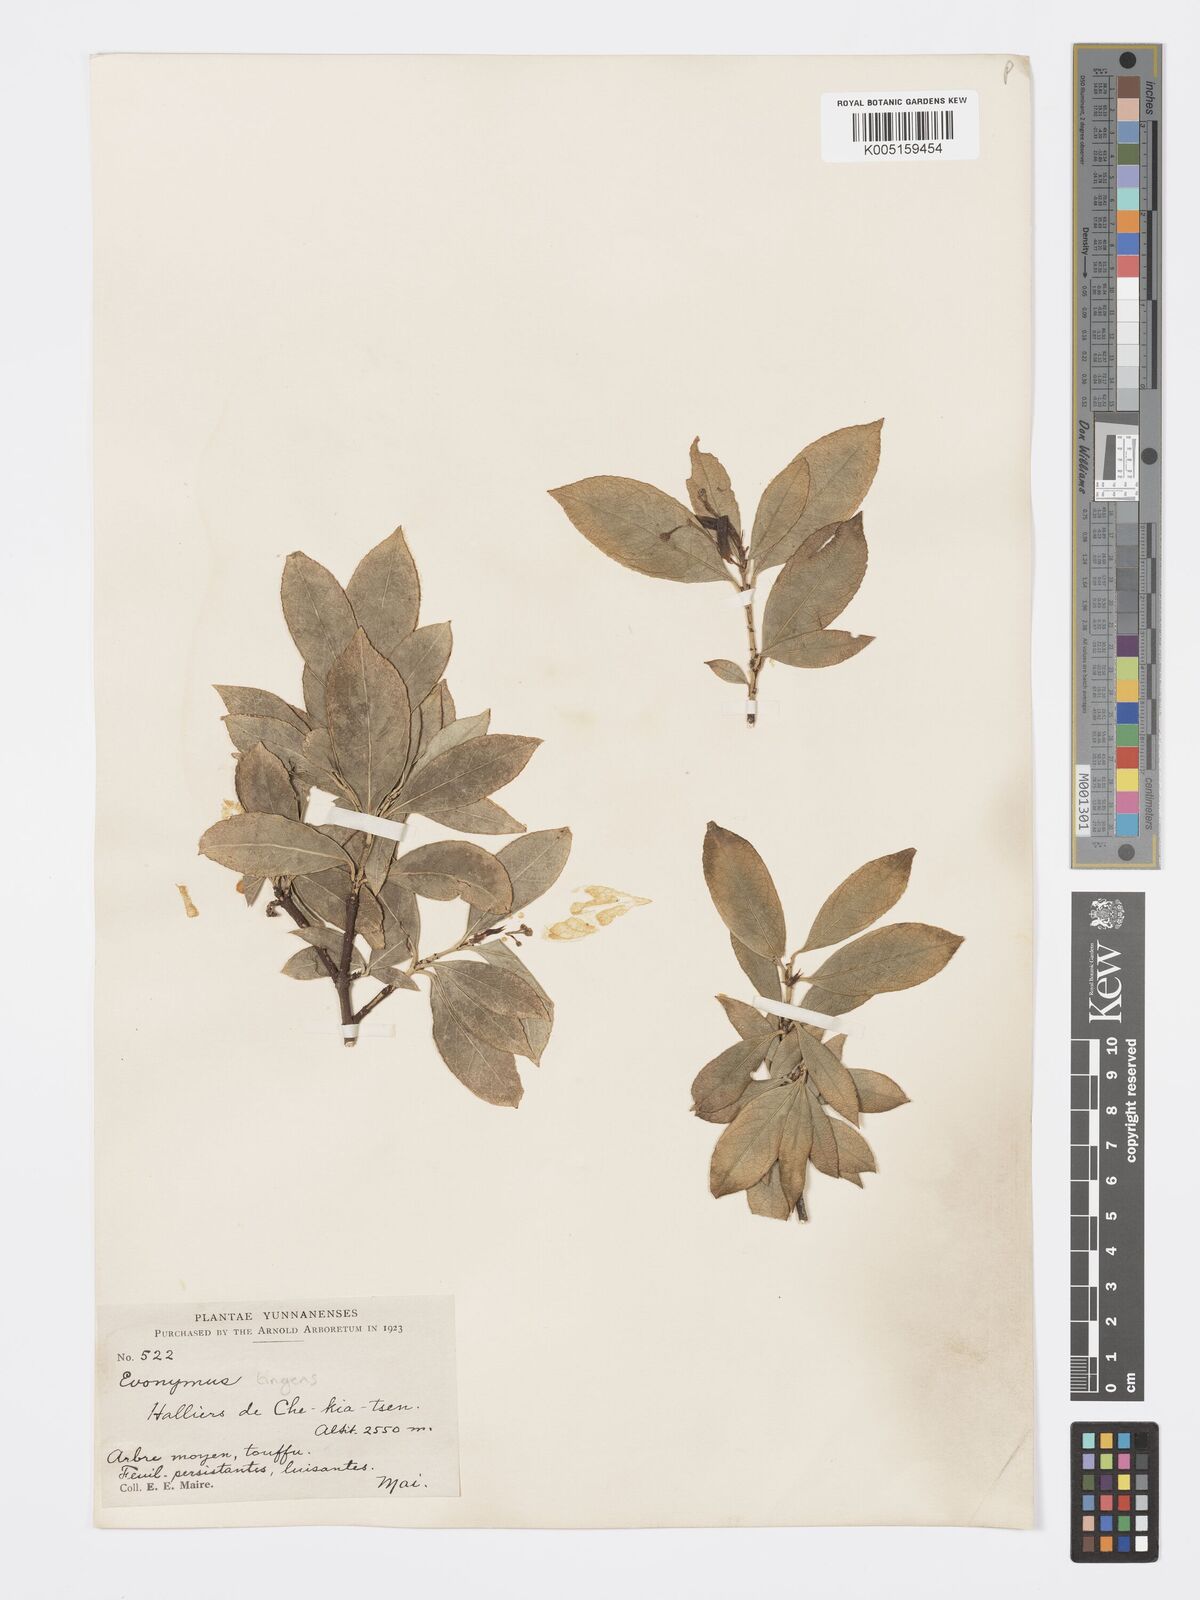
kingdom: Plantae
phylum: Tracheophyta
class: Magnoliopsida
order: Celastrales
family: Celastraceae
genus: Euonymus
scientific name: Euonymus tingens
